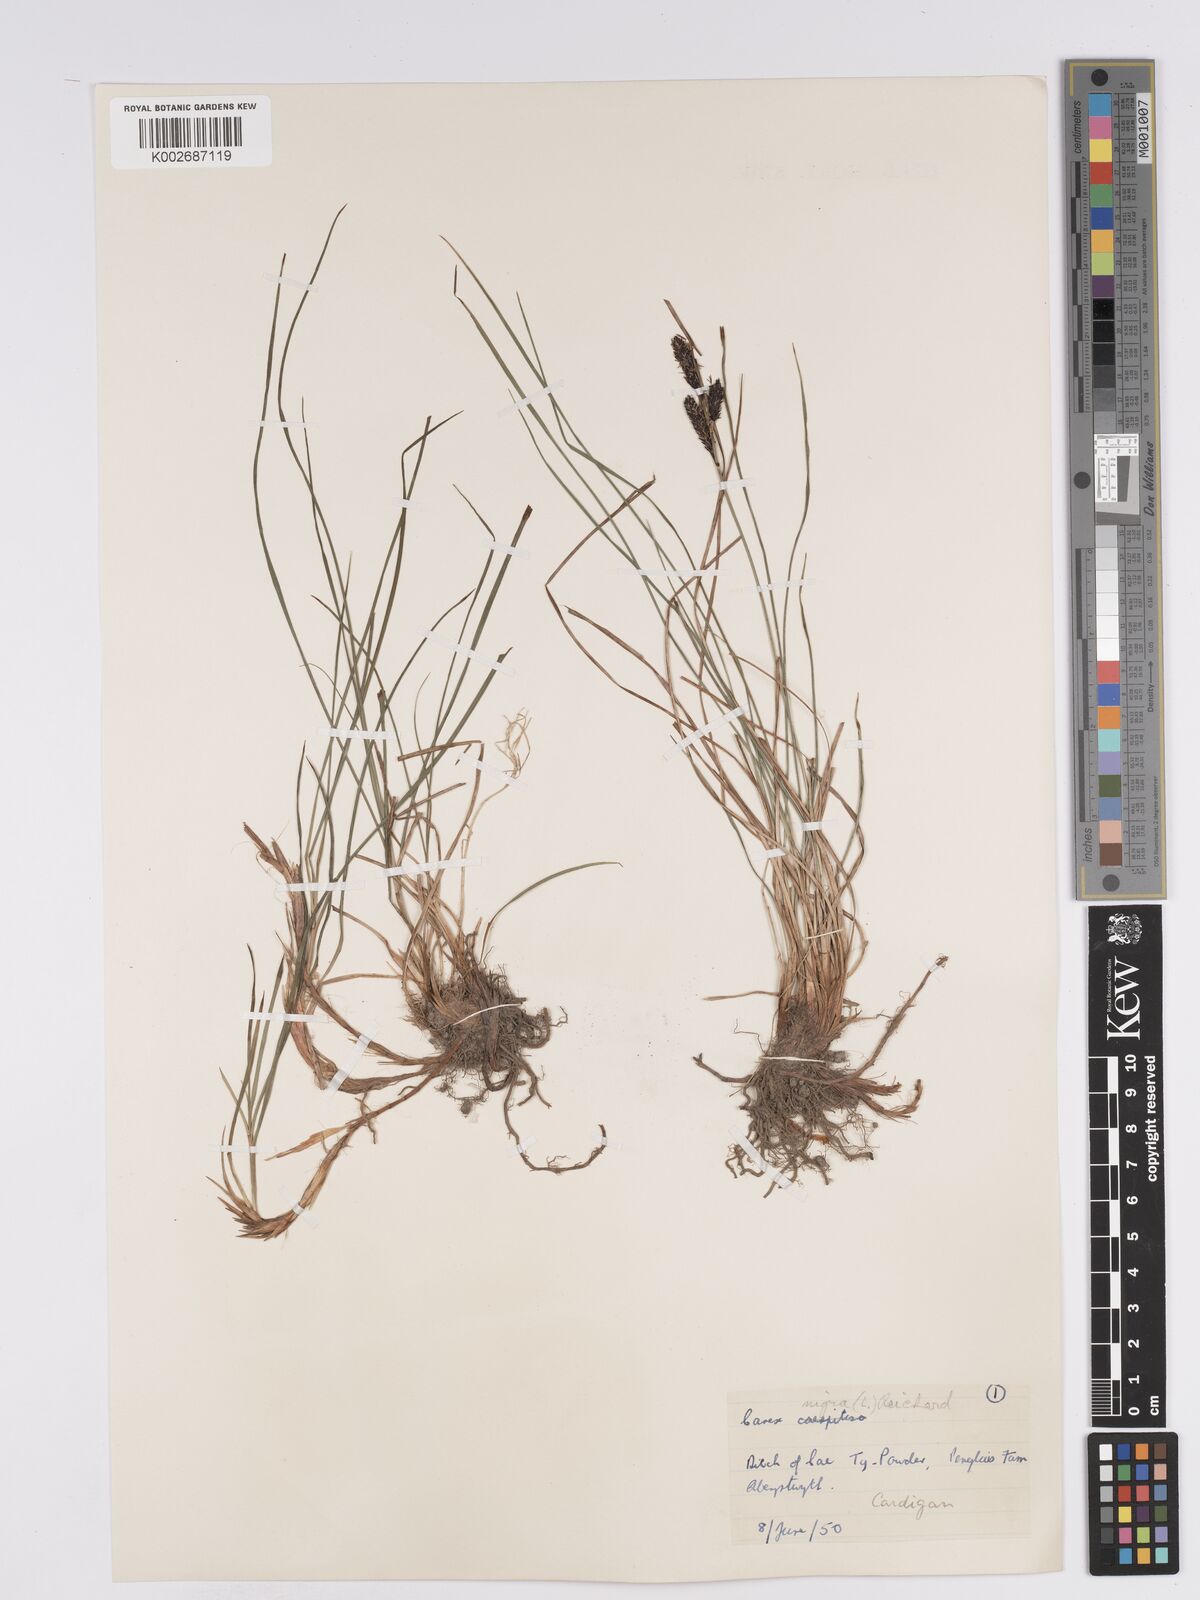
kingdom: Plantae
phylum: Tracheophyta
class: Liliopsida
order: Poales
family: Cyperaceae
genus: Carex
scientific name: Carex nigra
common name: Common sedge
